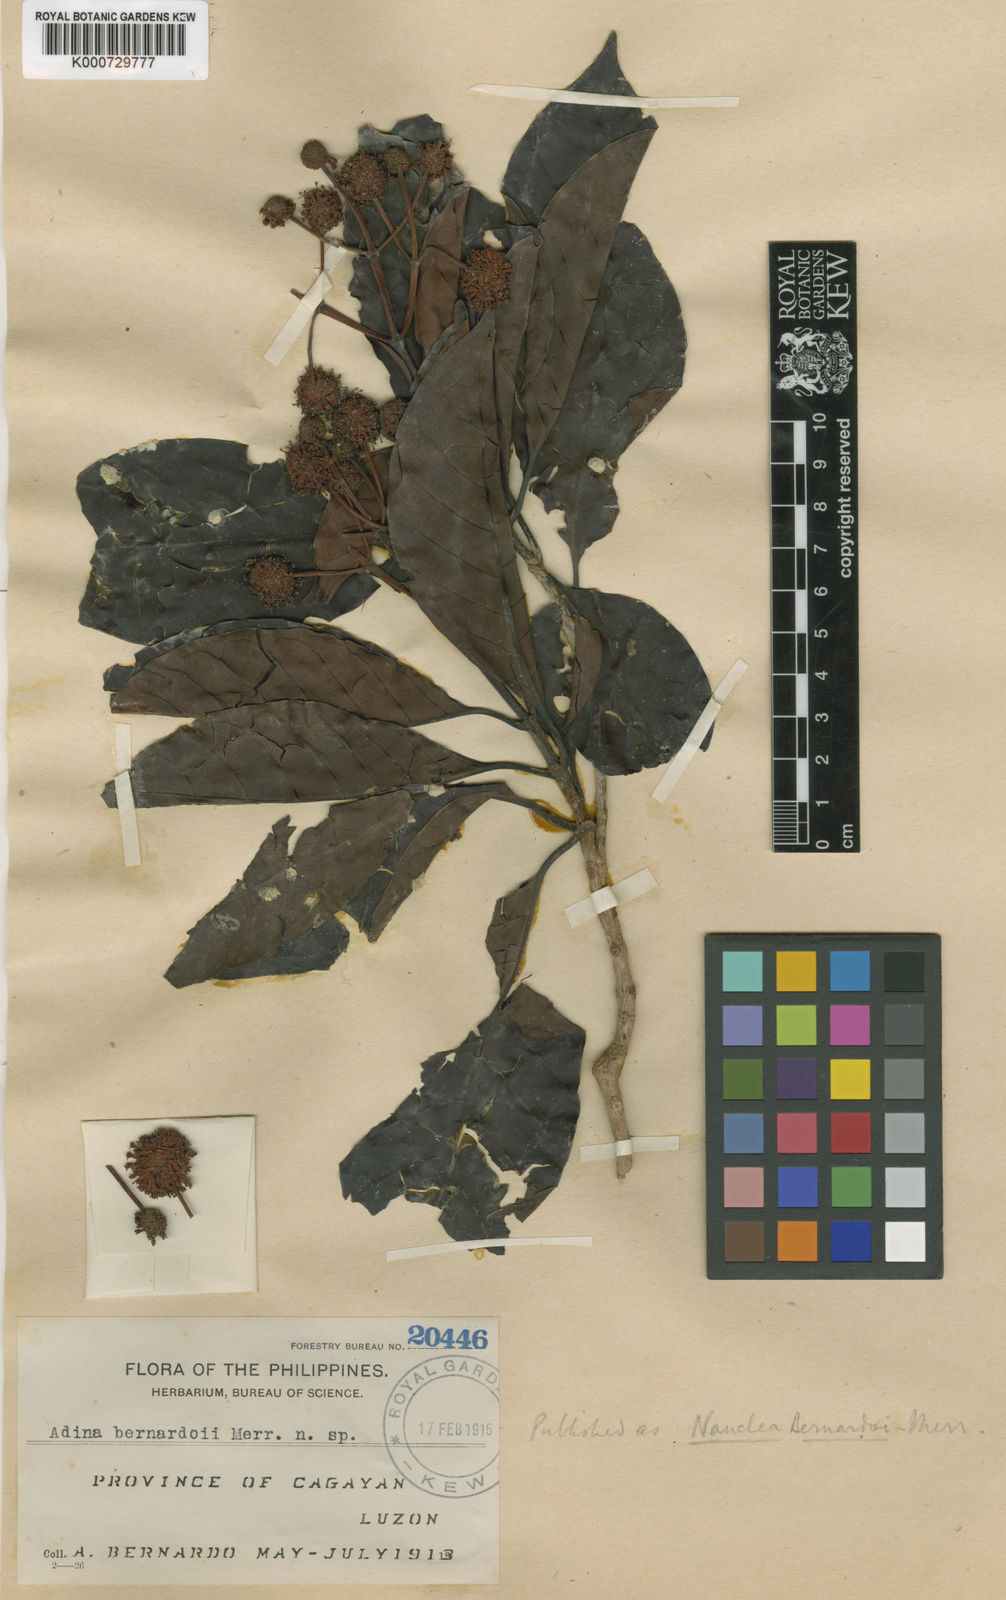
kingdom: Plantae
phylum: Tracheophyta
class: Magnoliopsida
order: Gentianales
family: Rubiaceae
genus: Ludekia
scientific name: Ludekia bernardoi
